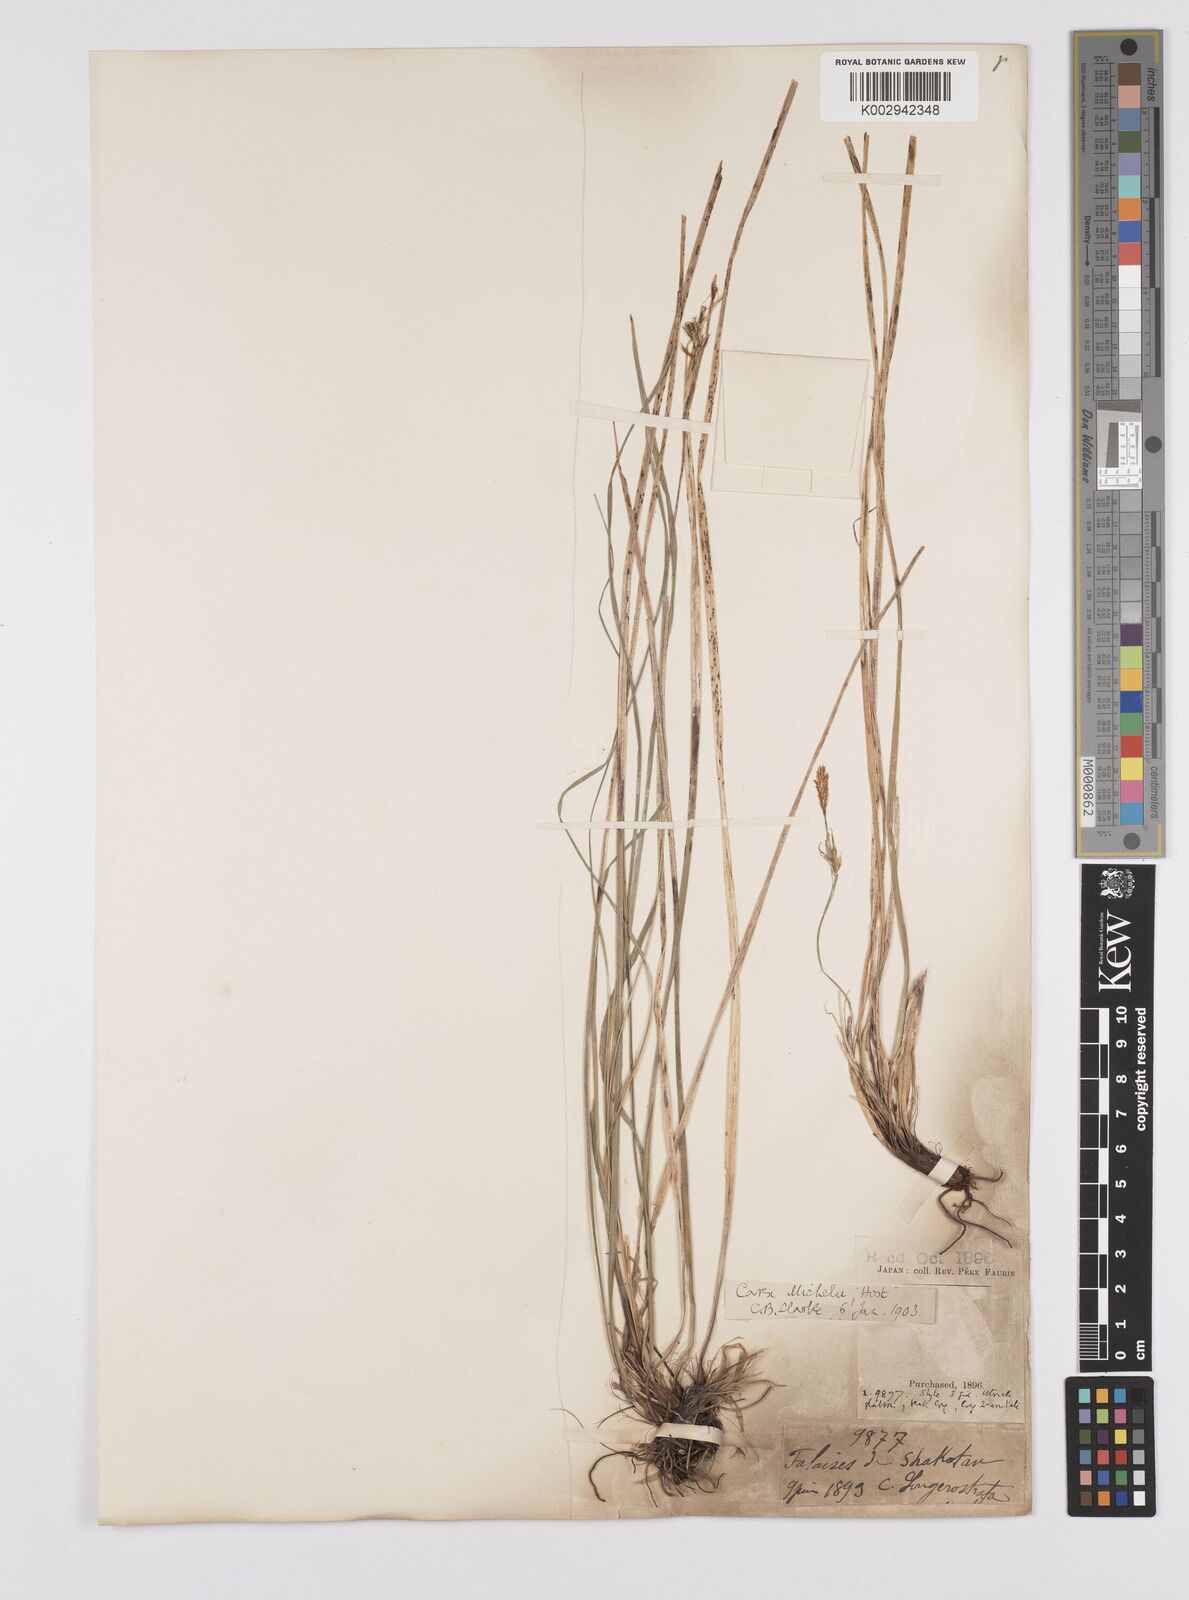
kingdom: Plantae
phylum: Tracheophyta
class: Liliopsida
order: Poales
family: Cyperaceae
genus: Carex
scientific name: Carex michelii
